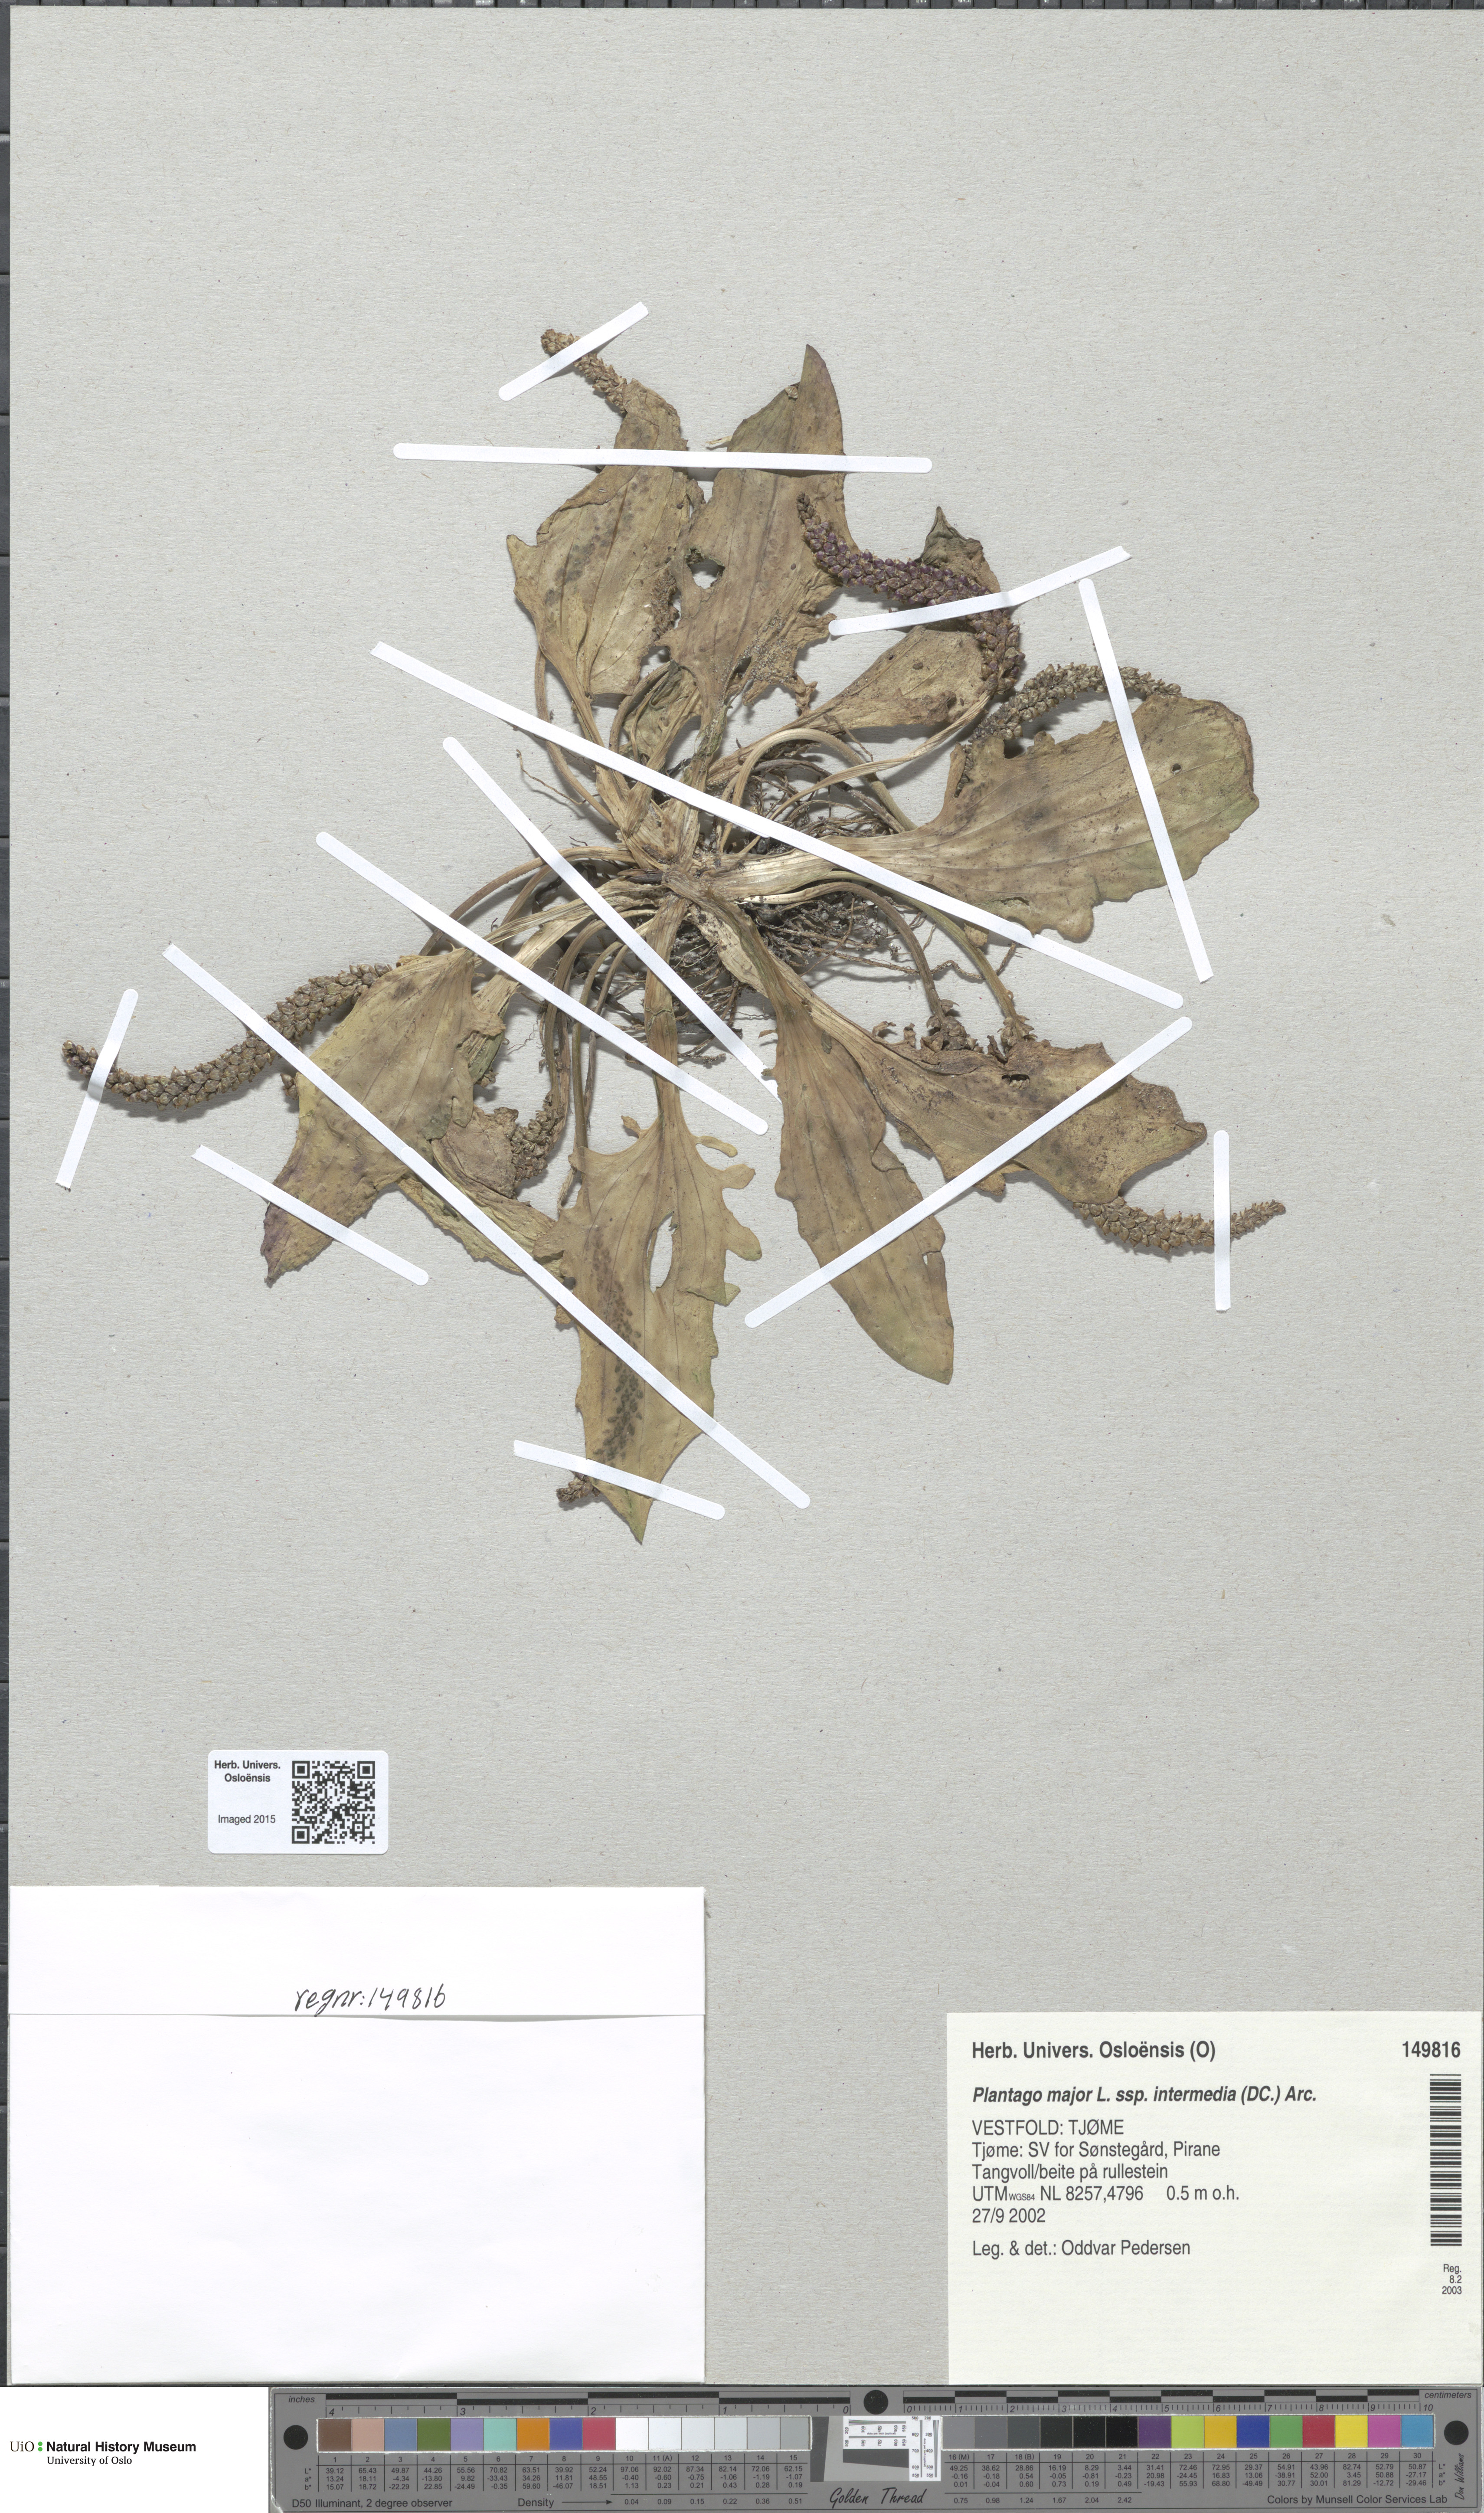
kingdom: Plantae
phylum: Tracheophyta
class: Magnoliopsida
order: Lamiales
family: Plantaginaceae
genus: Plantago
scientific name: Plantago uliginosa
